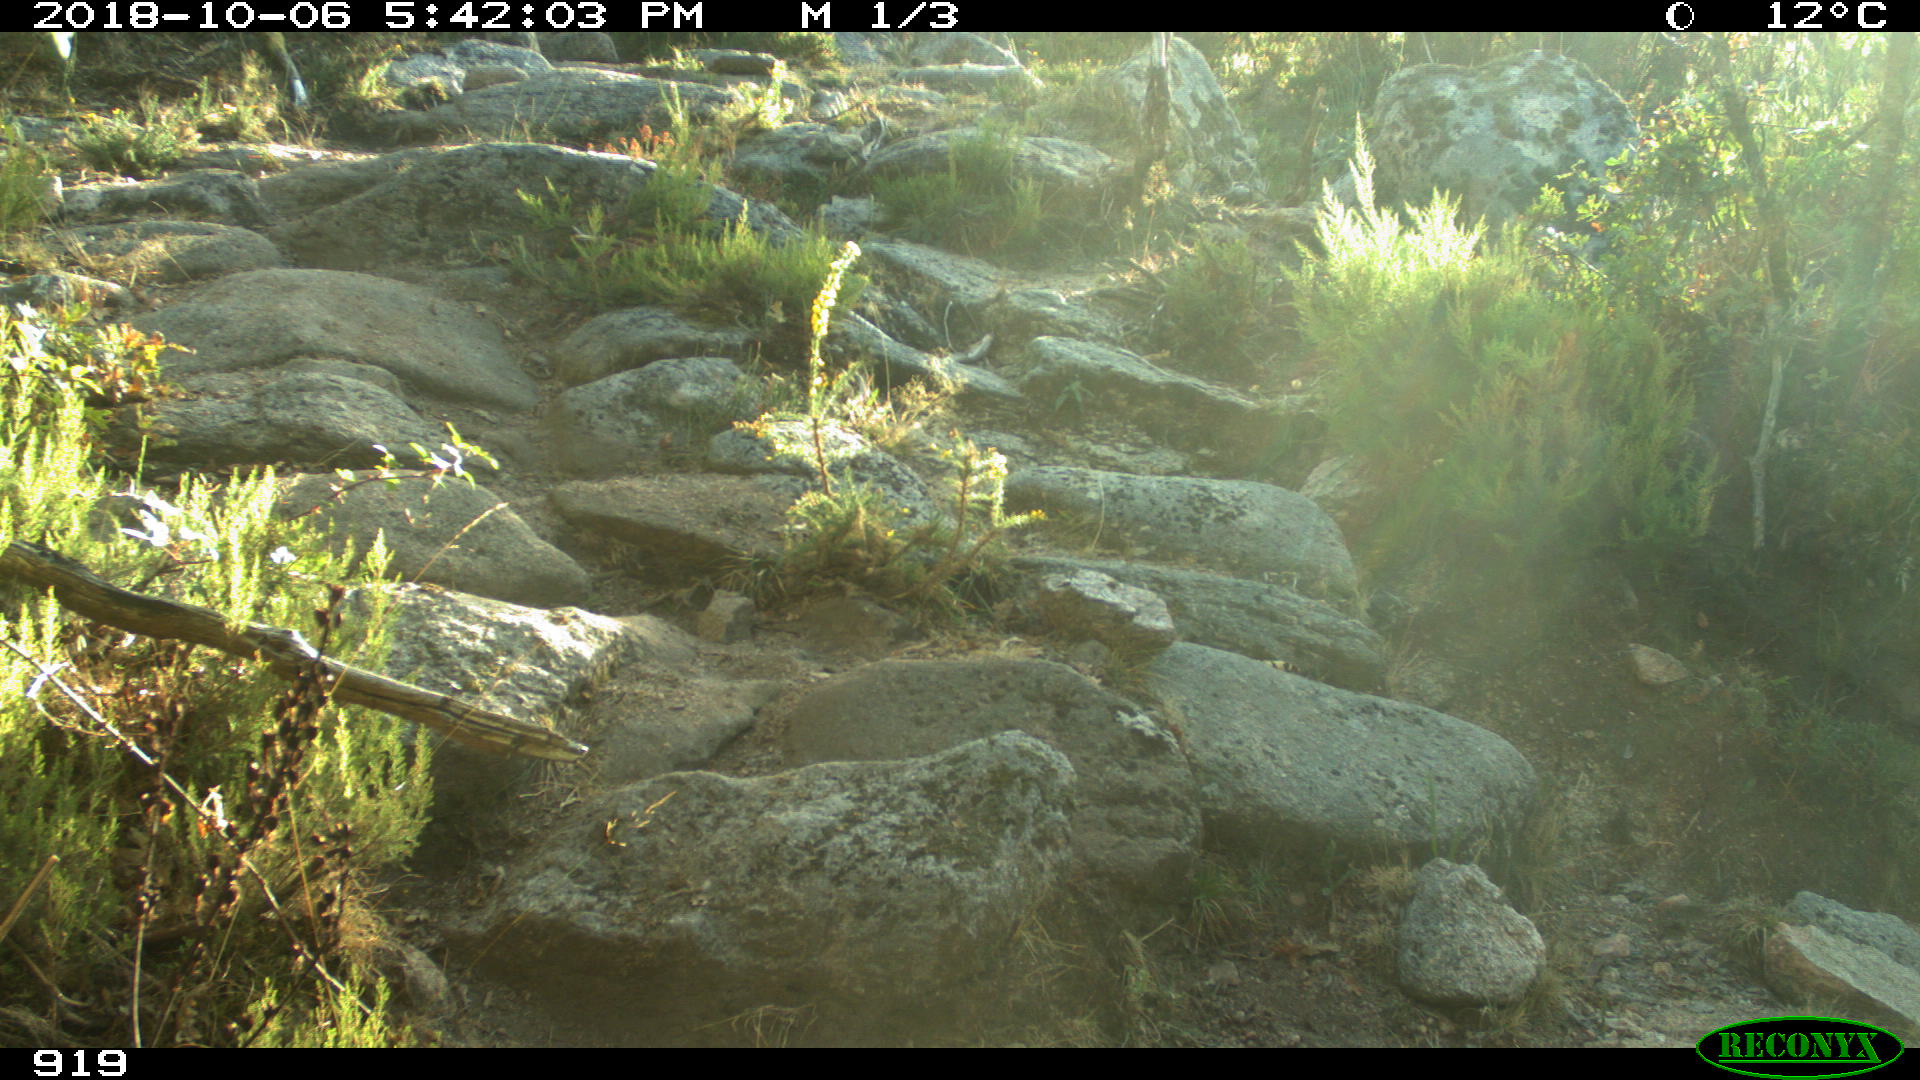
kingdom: Animalia
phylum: Chordata
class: Mammalia
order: Artiodactyla
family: Bovidae
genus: Bos
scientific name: Bos taurus
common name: Domesticated cattle
